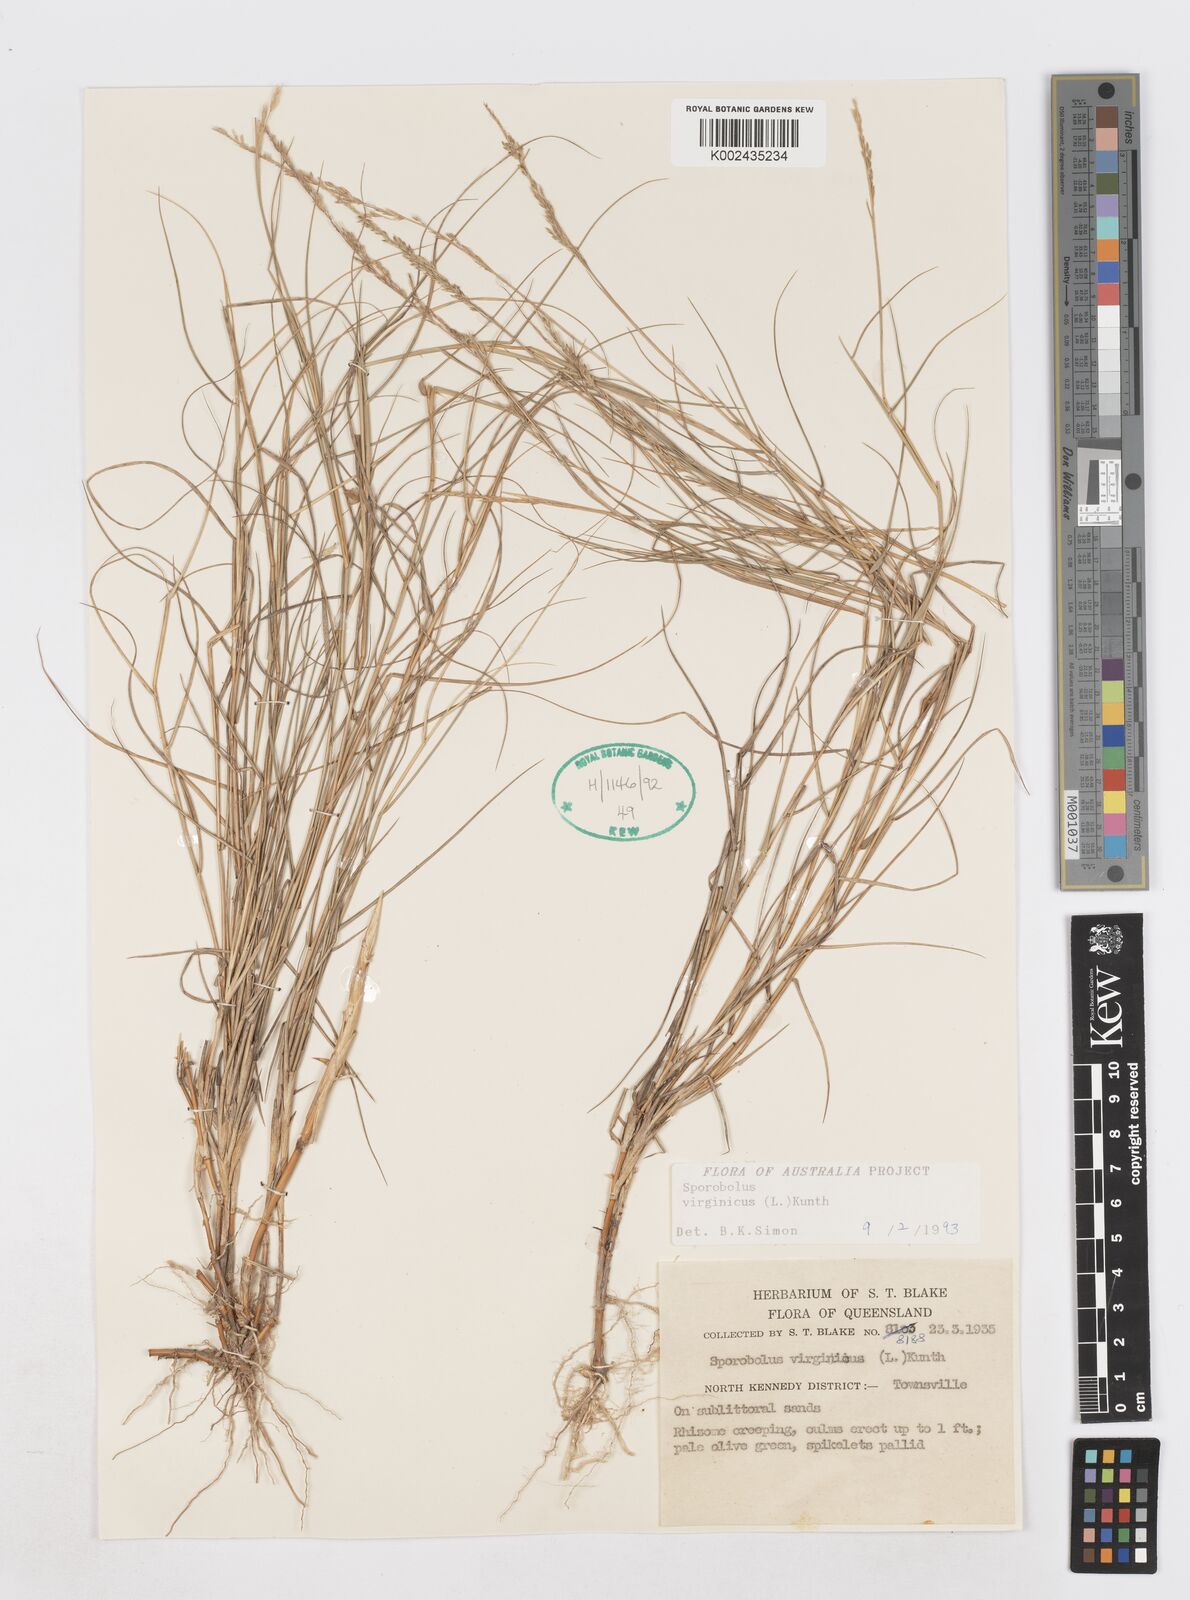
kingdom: Plantae
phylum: Tracheophyta
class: Liliopsida
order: Poales
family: Poaceae
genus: Sporobolus
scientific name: Sporobolus virginicus
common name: Beach dropseed
